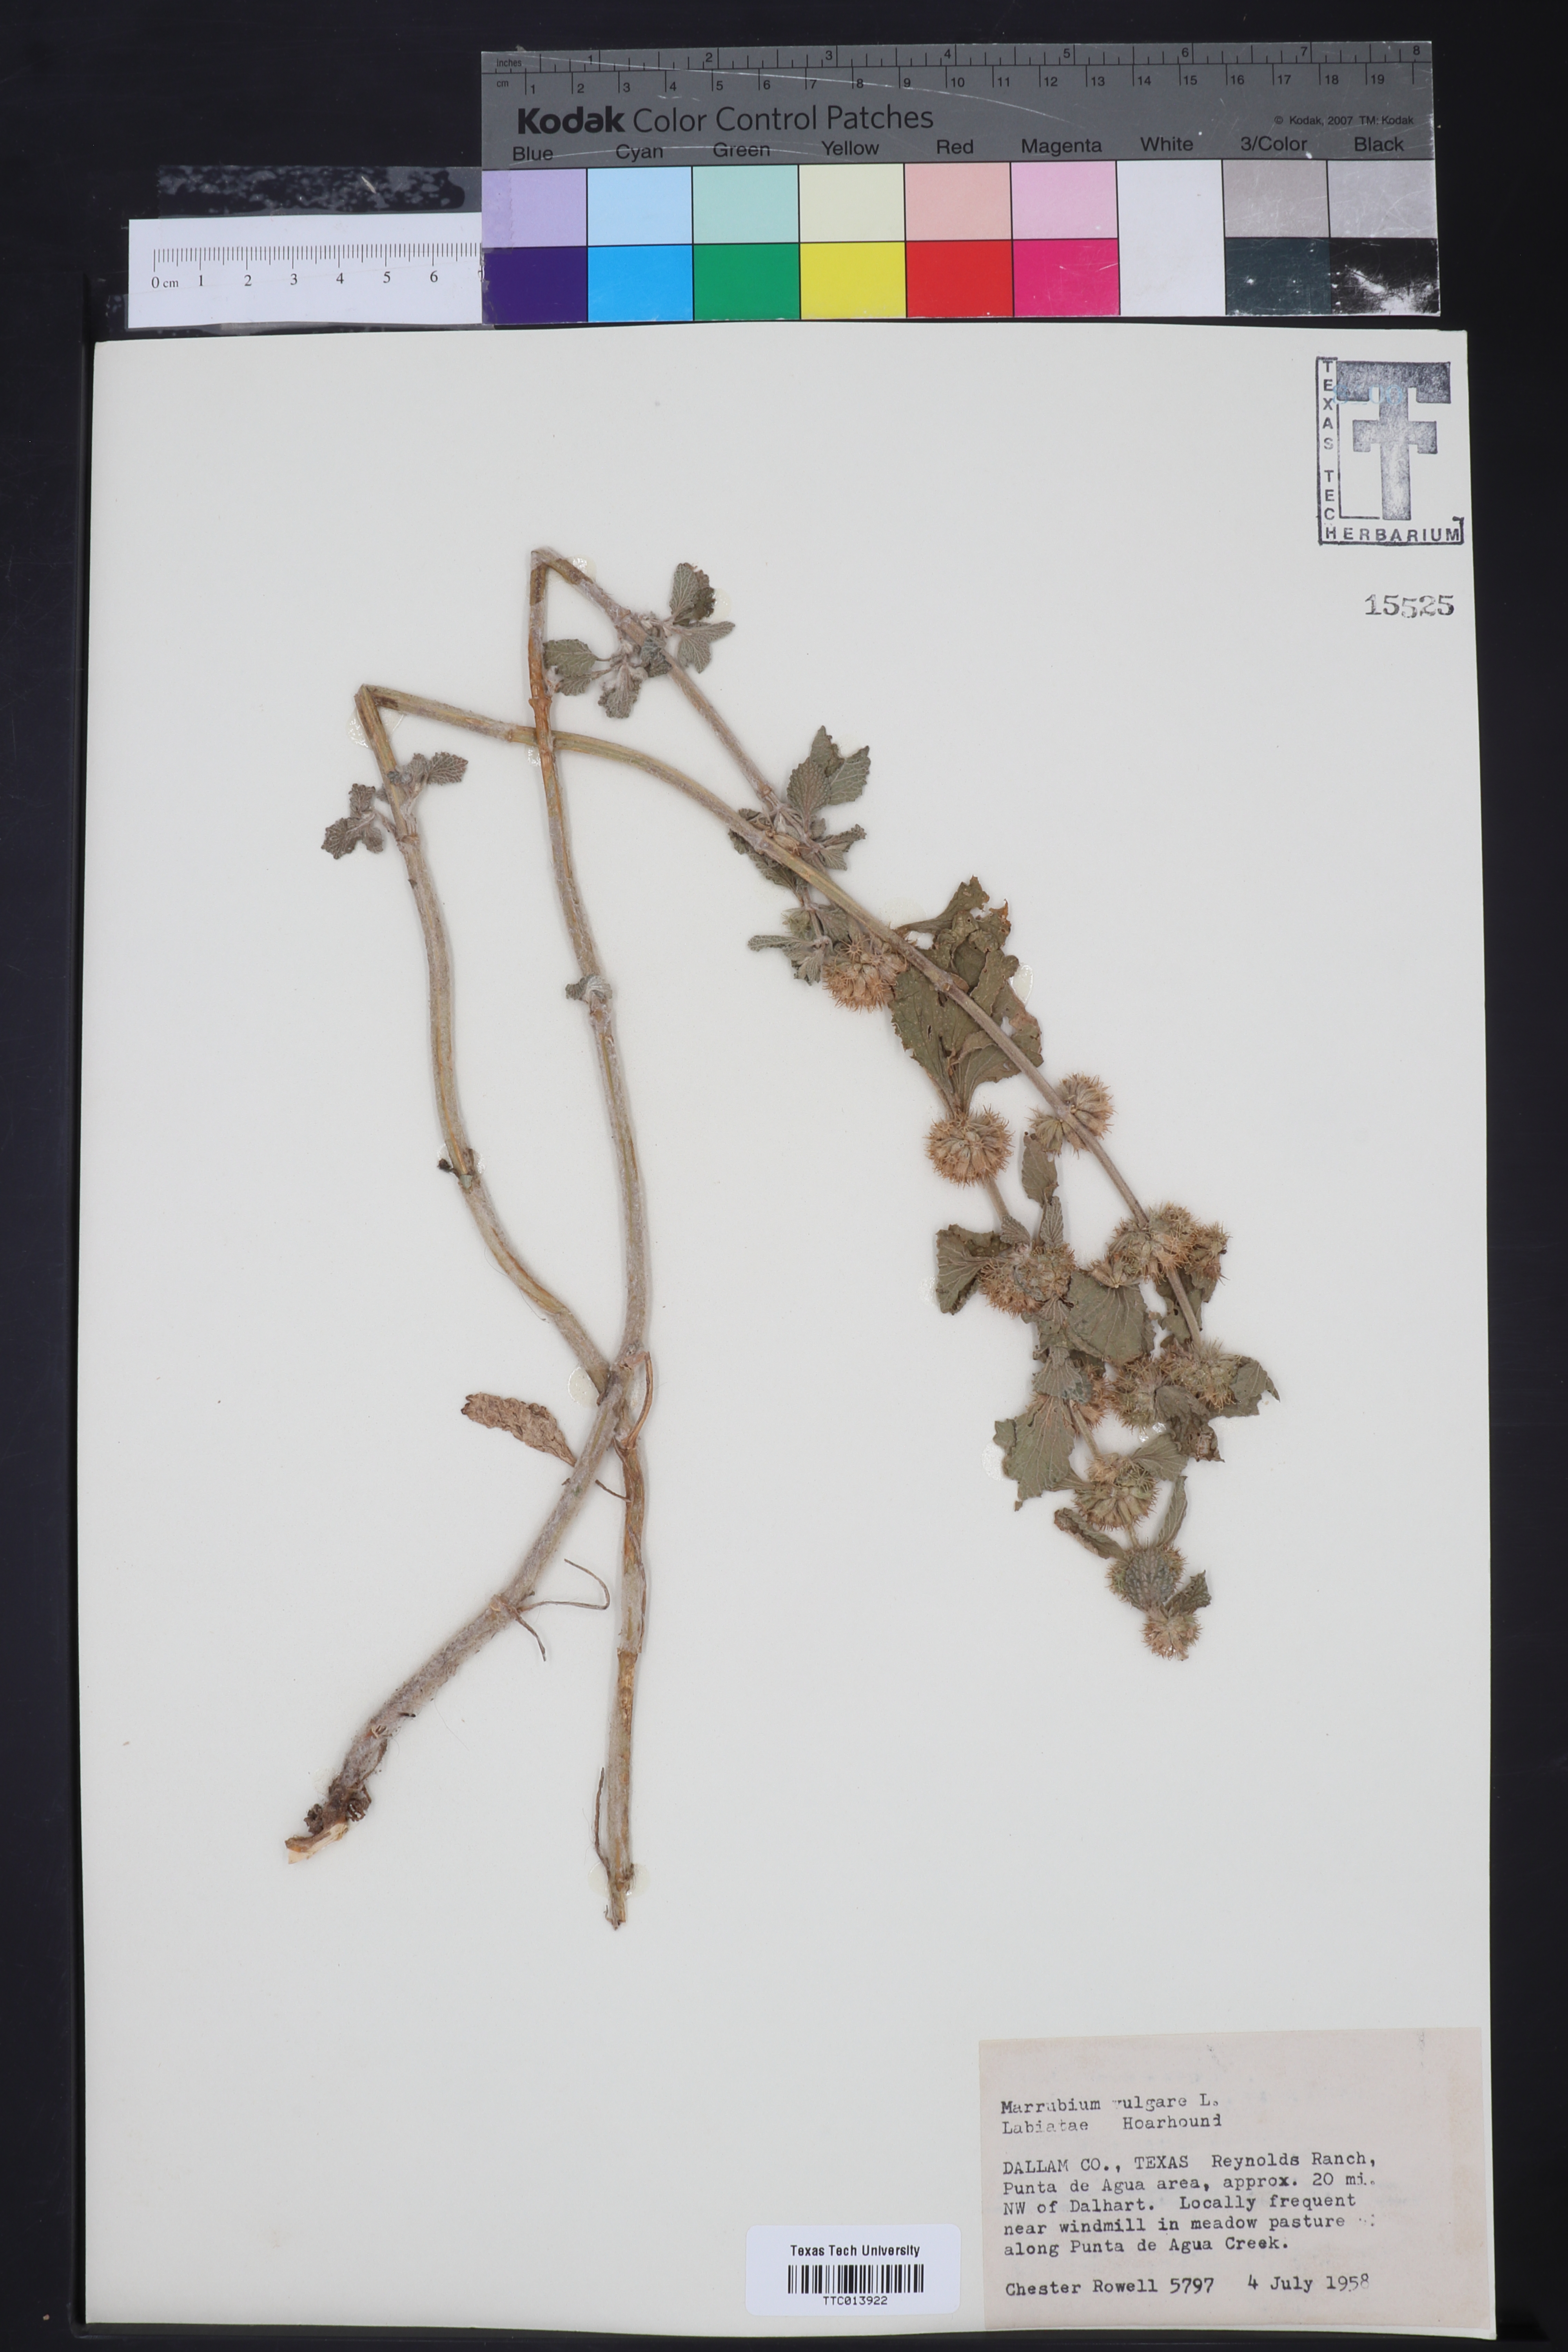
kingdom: Plantae
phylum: Tracheophyta
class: Magnoliopsida
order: Lamiales
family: Lamiaceae
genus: Marrubium
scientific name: Marrubium vulgare
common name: Horehound
